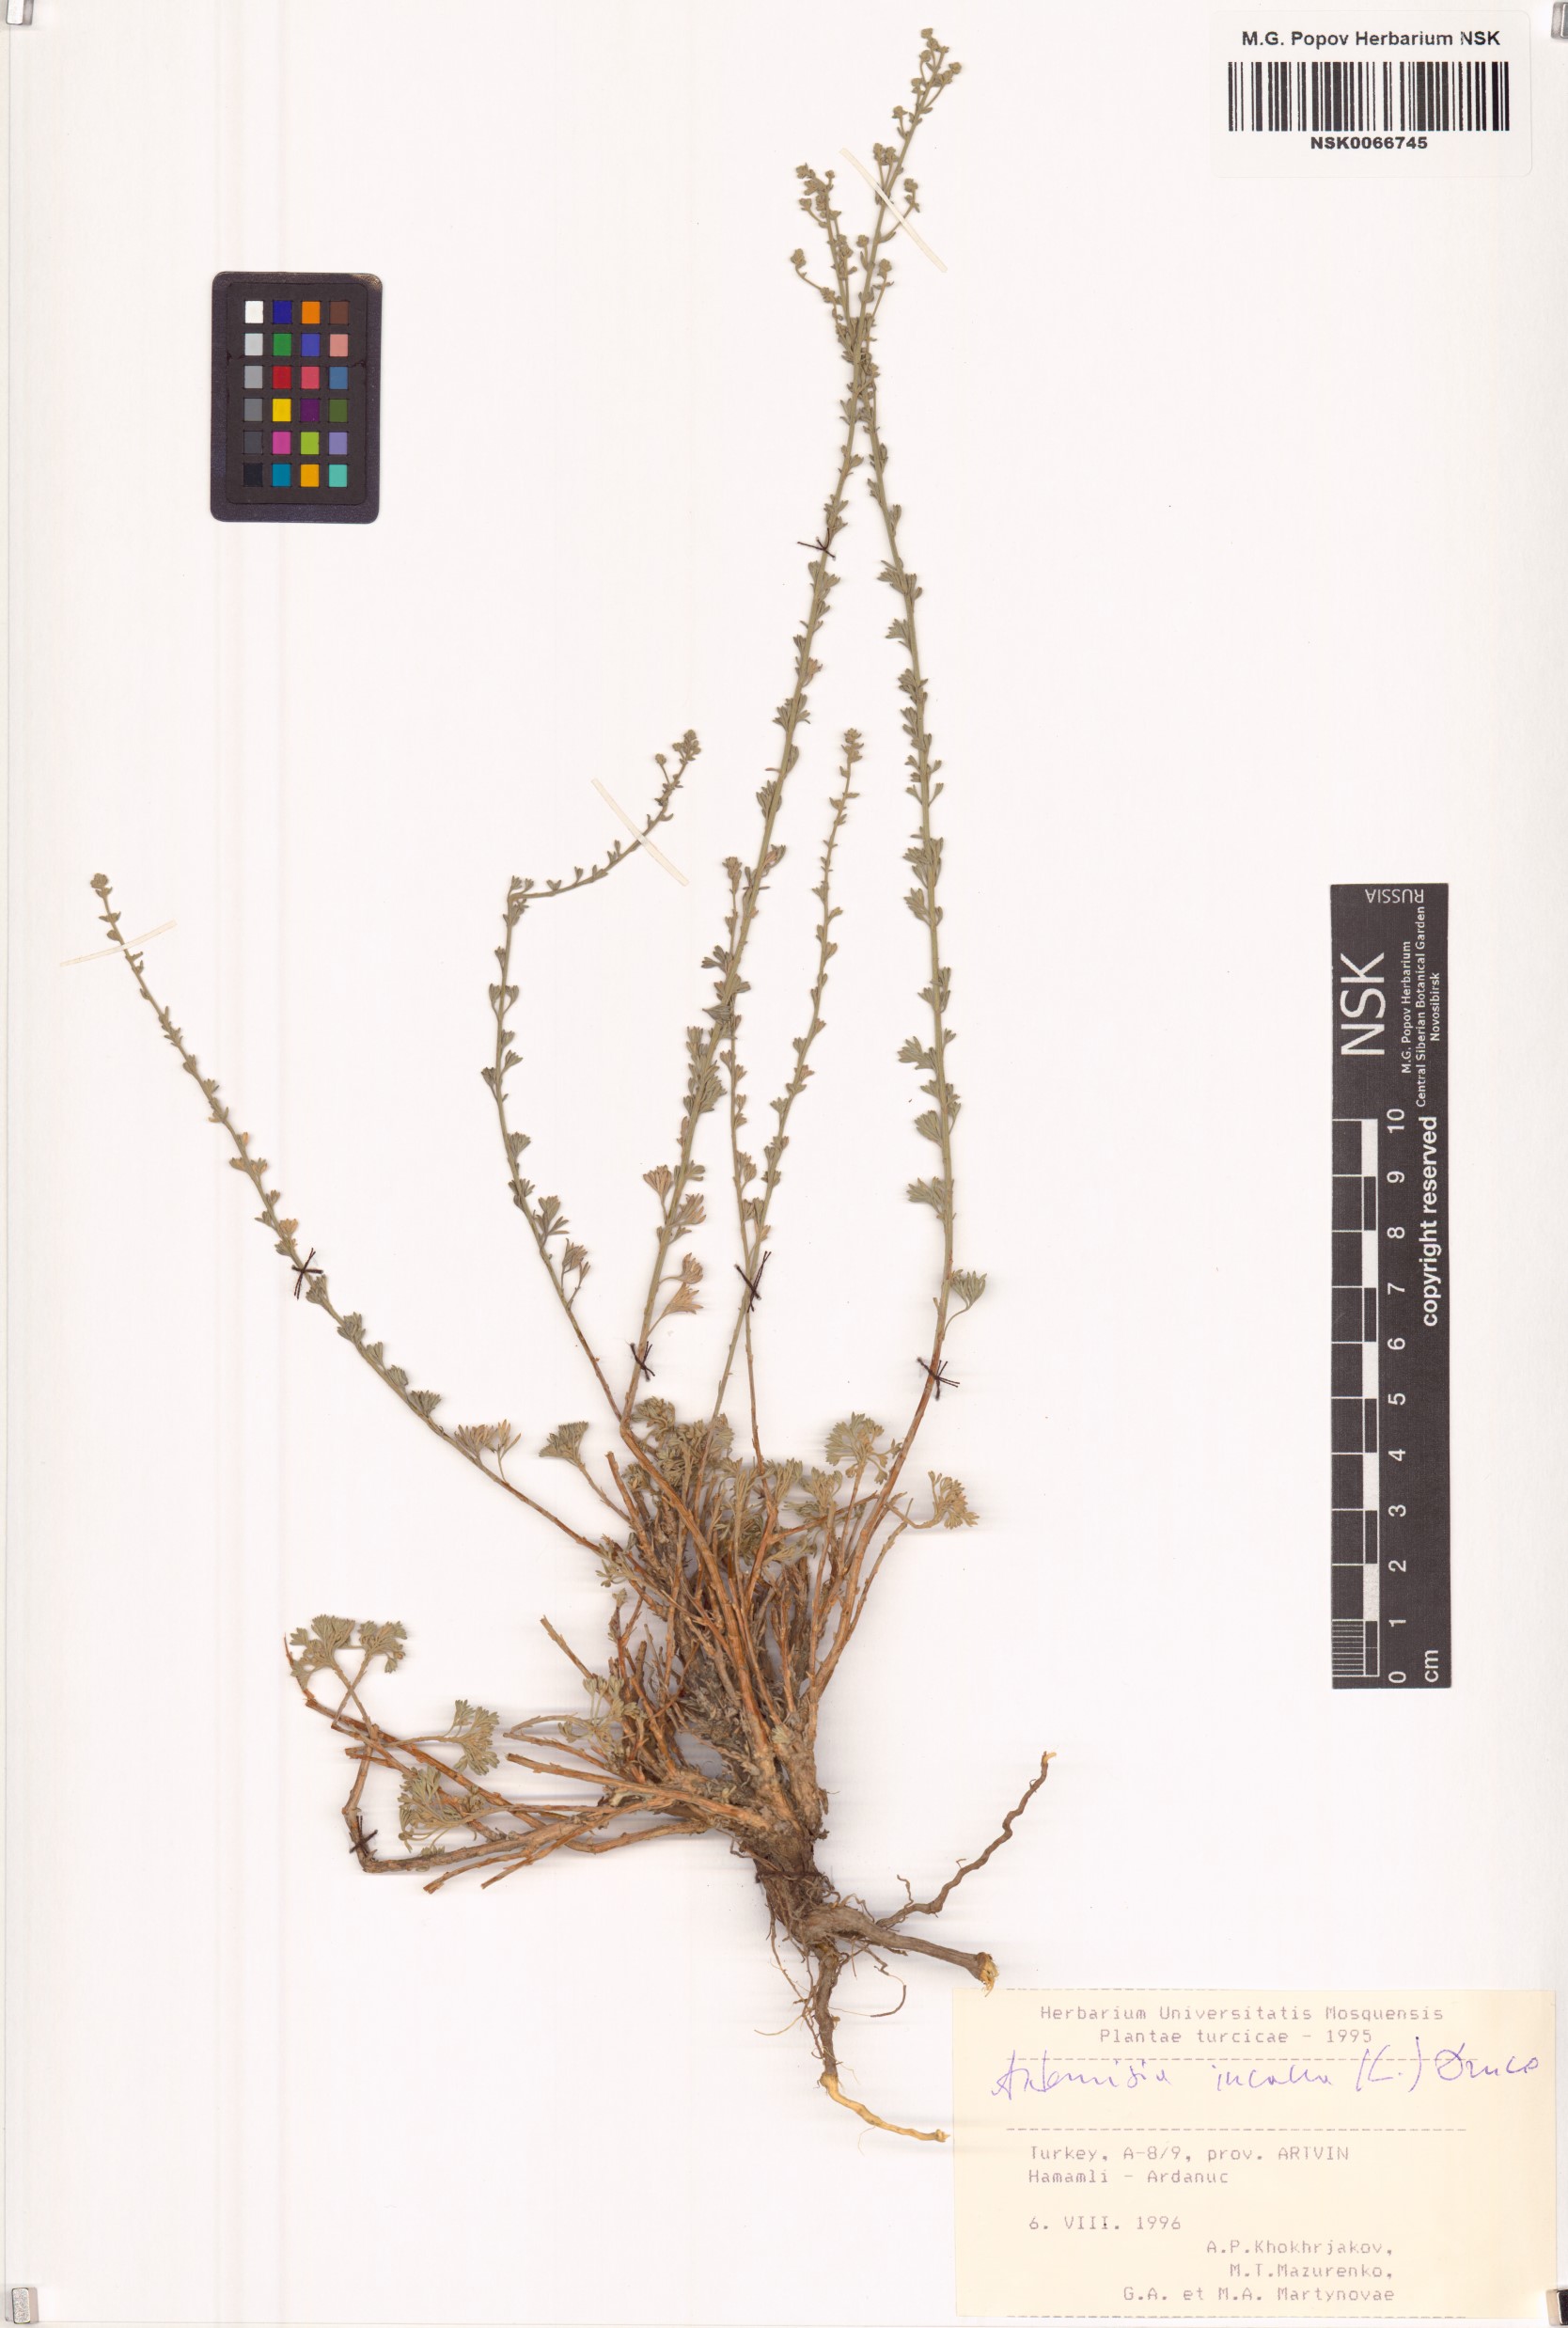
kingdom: Plantae
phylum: Tracheophyta
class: Magnoliopsida
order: Asterales
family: Asteraceae
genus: Artemisia
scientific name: Artemisia incana
